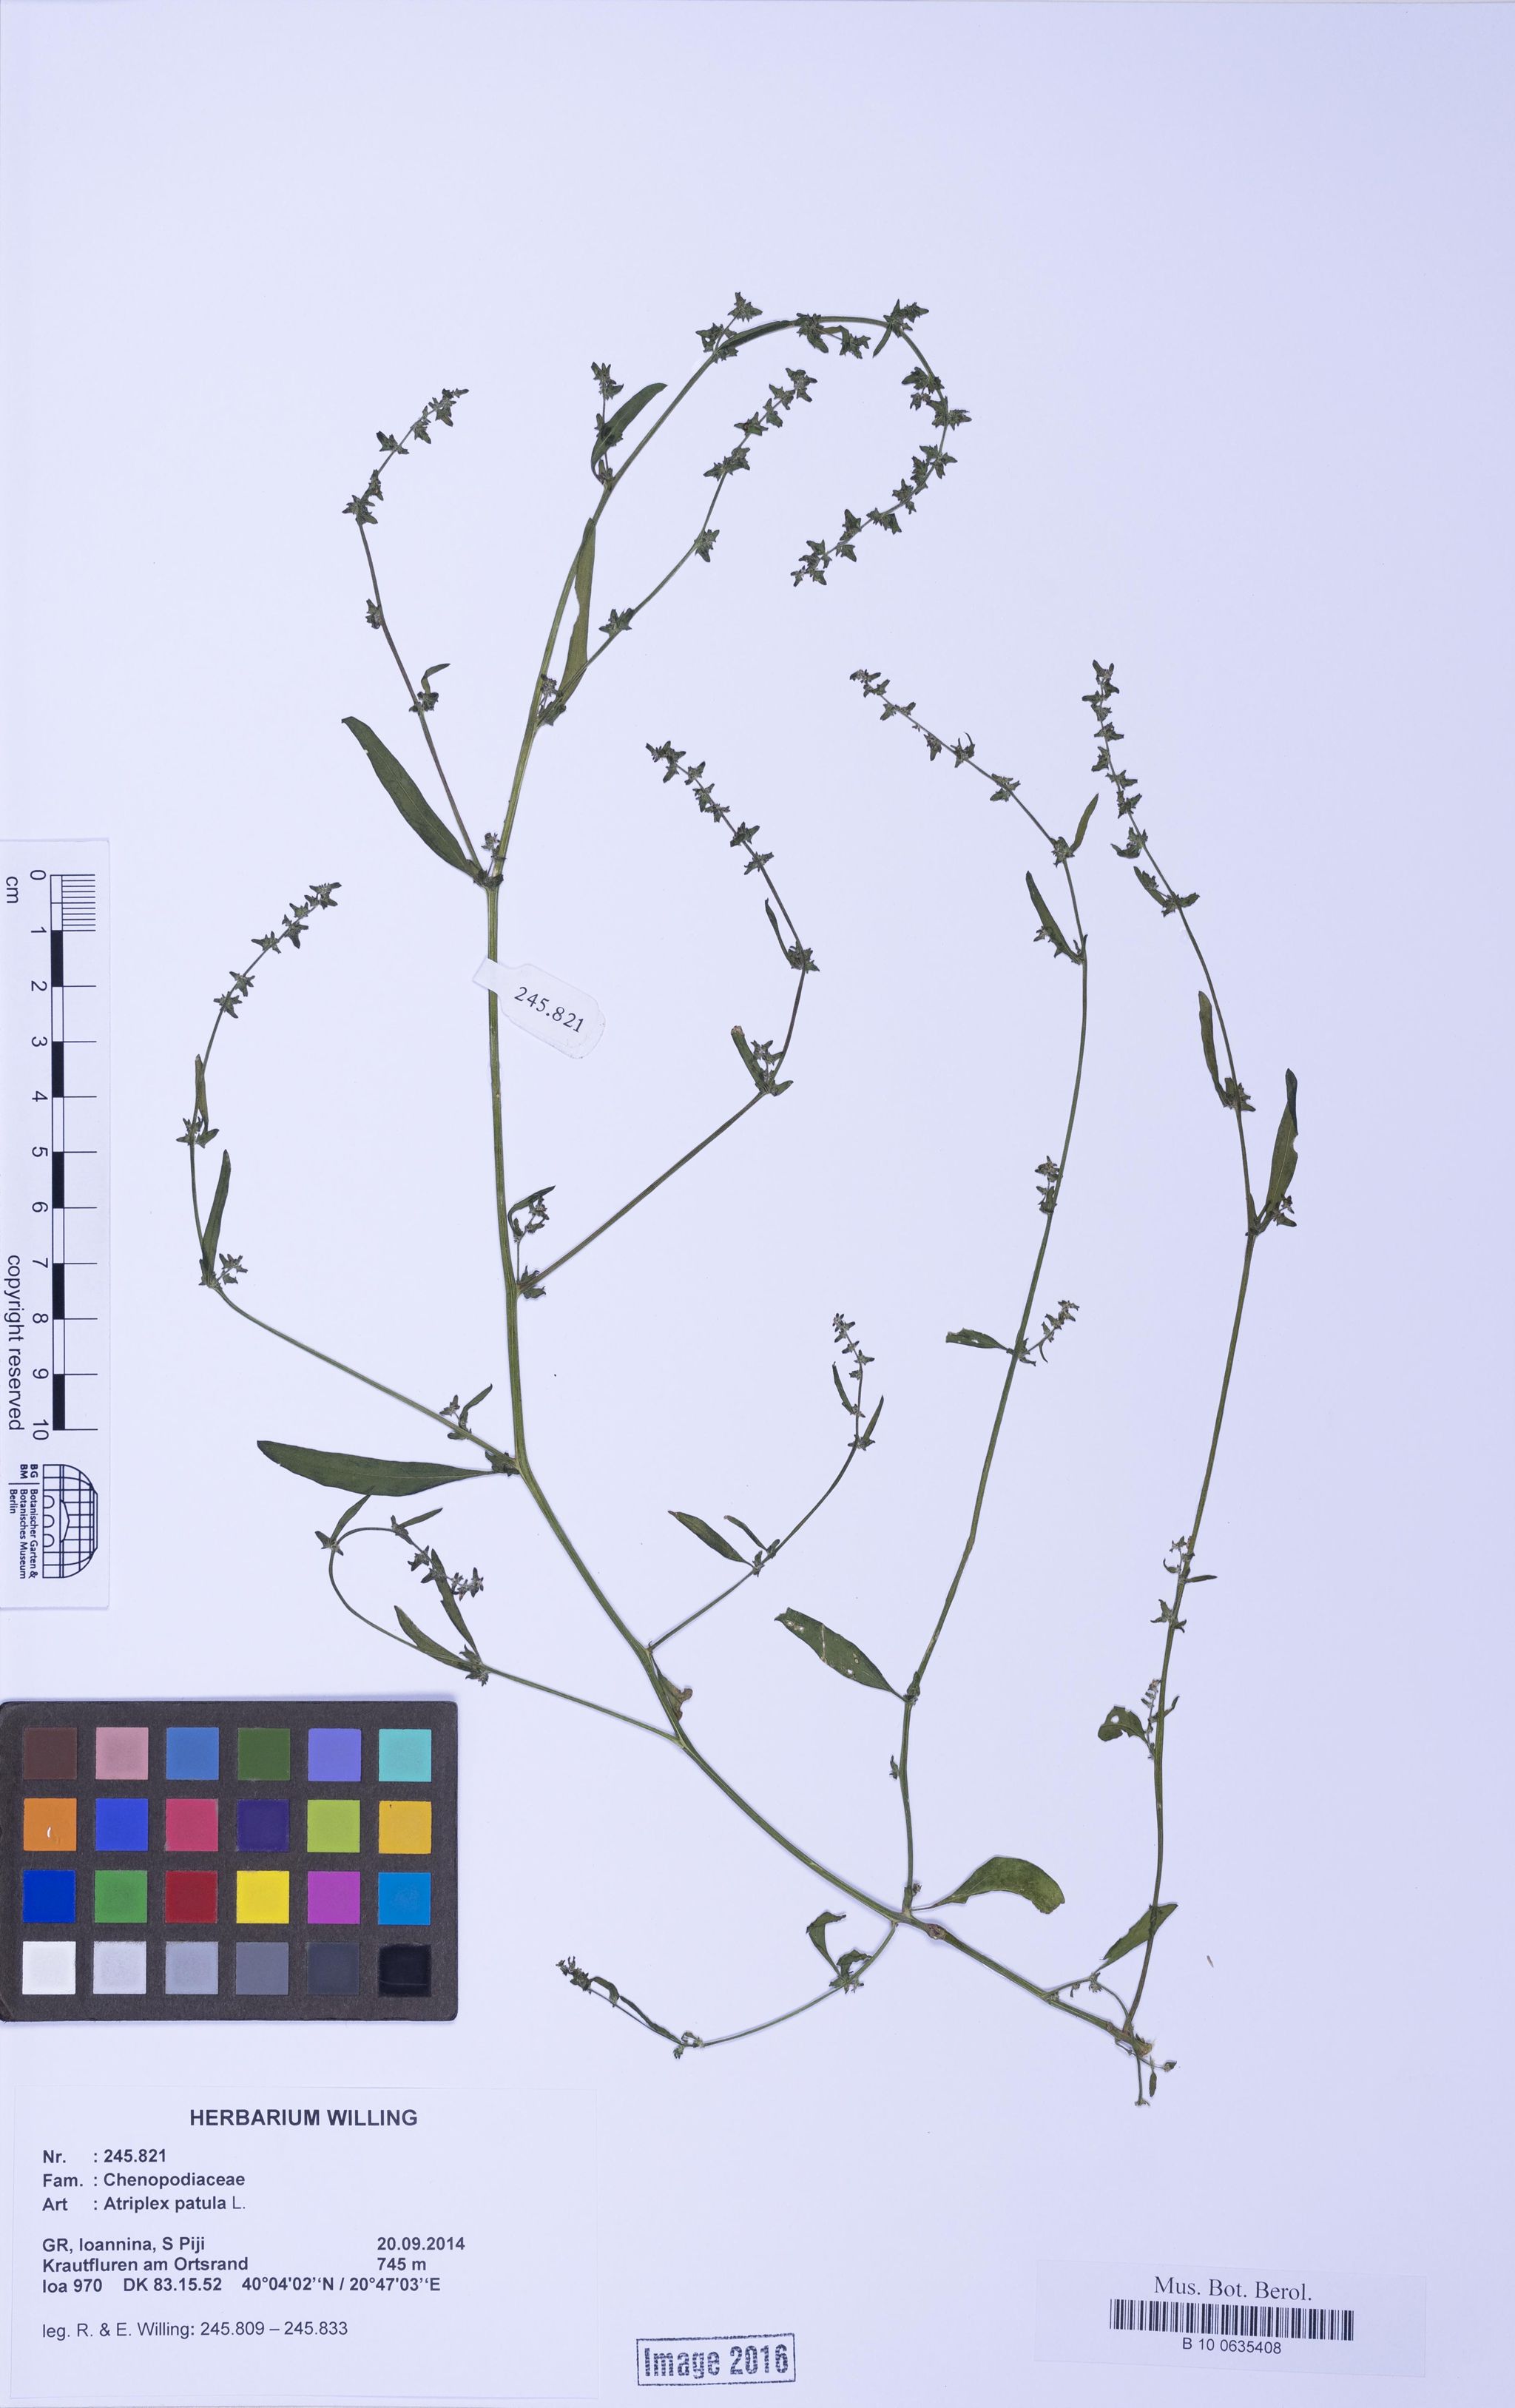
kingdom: Plantae
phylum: Tracheophyta
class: Magnoliopsida
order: Caryophyllales
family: Amaranthaceae
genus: Atriplex
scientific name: Atriplex patula
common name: Common orache
